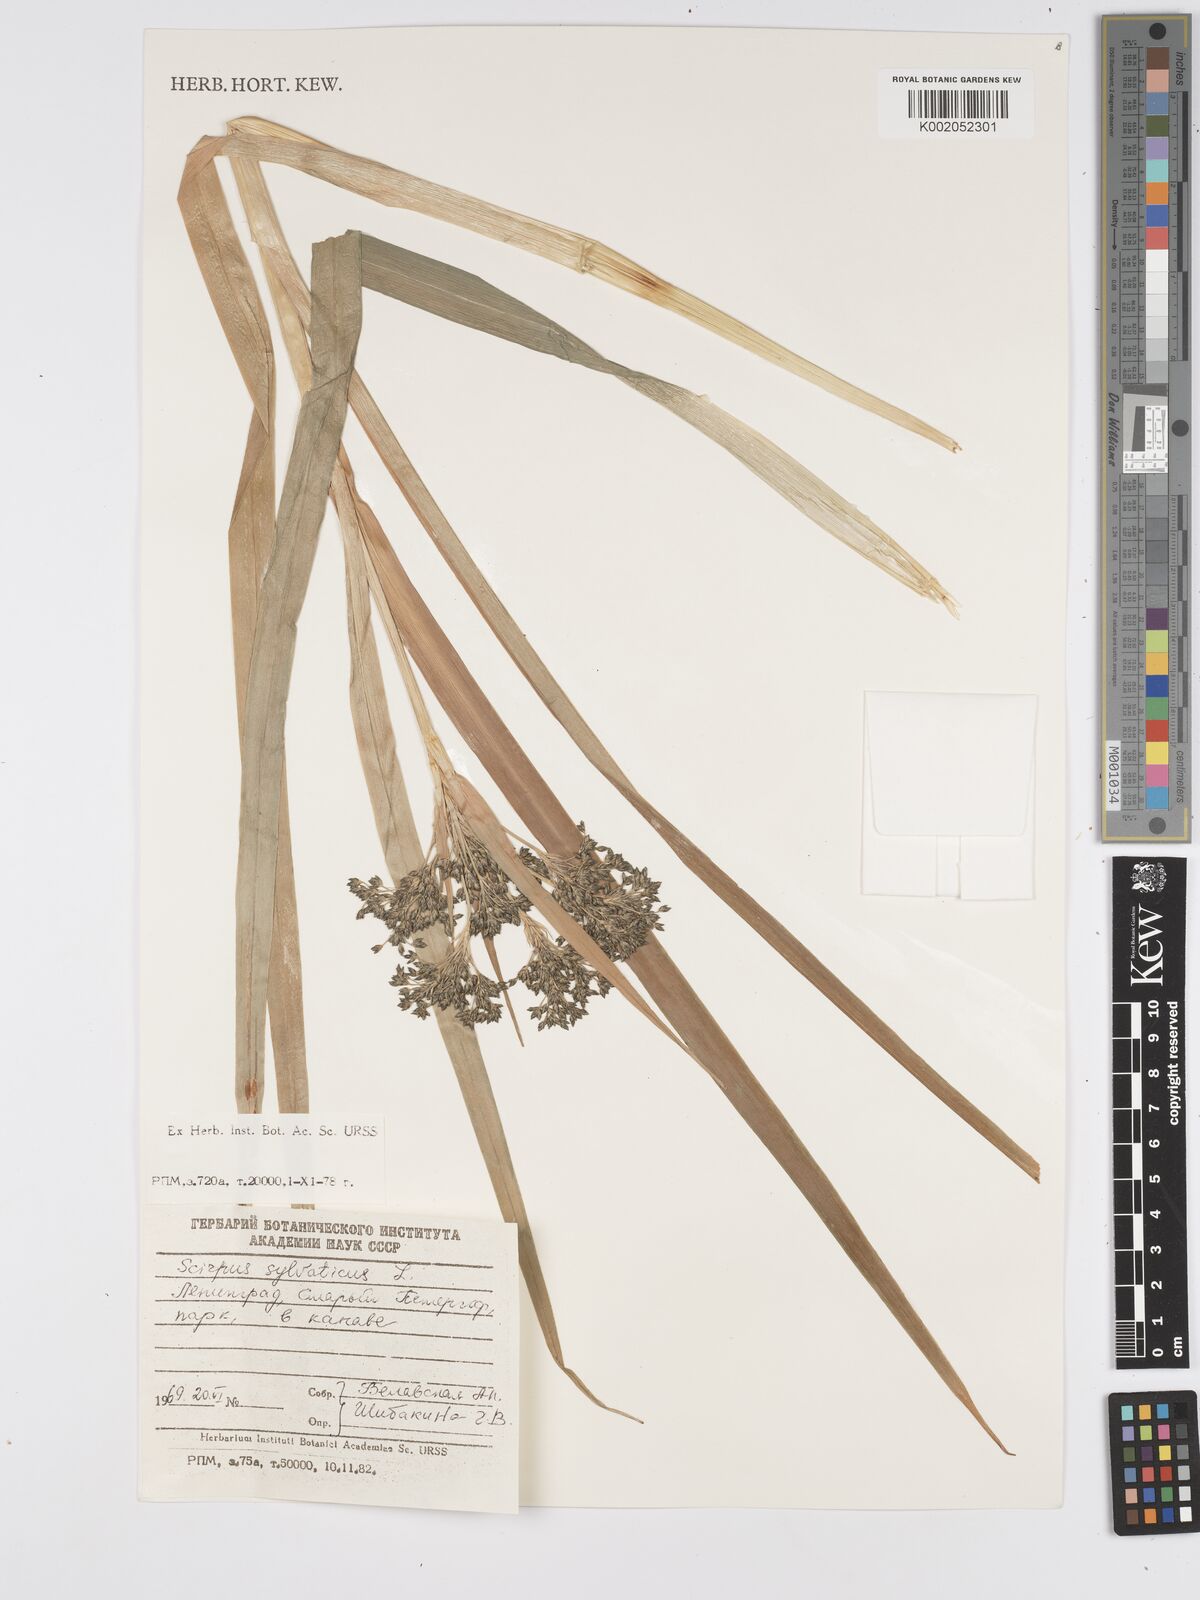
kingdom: Plantae
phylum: Tracheophyta
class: Liliopsida
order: Poales
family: Cyperaceae
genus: Scirpus
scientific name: Scirpus sylvaticus
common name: Wood club-rush
